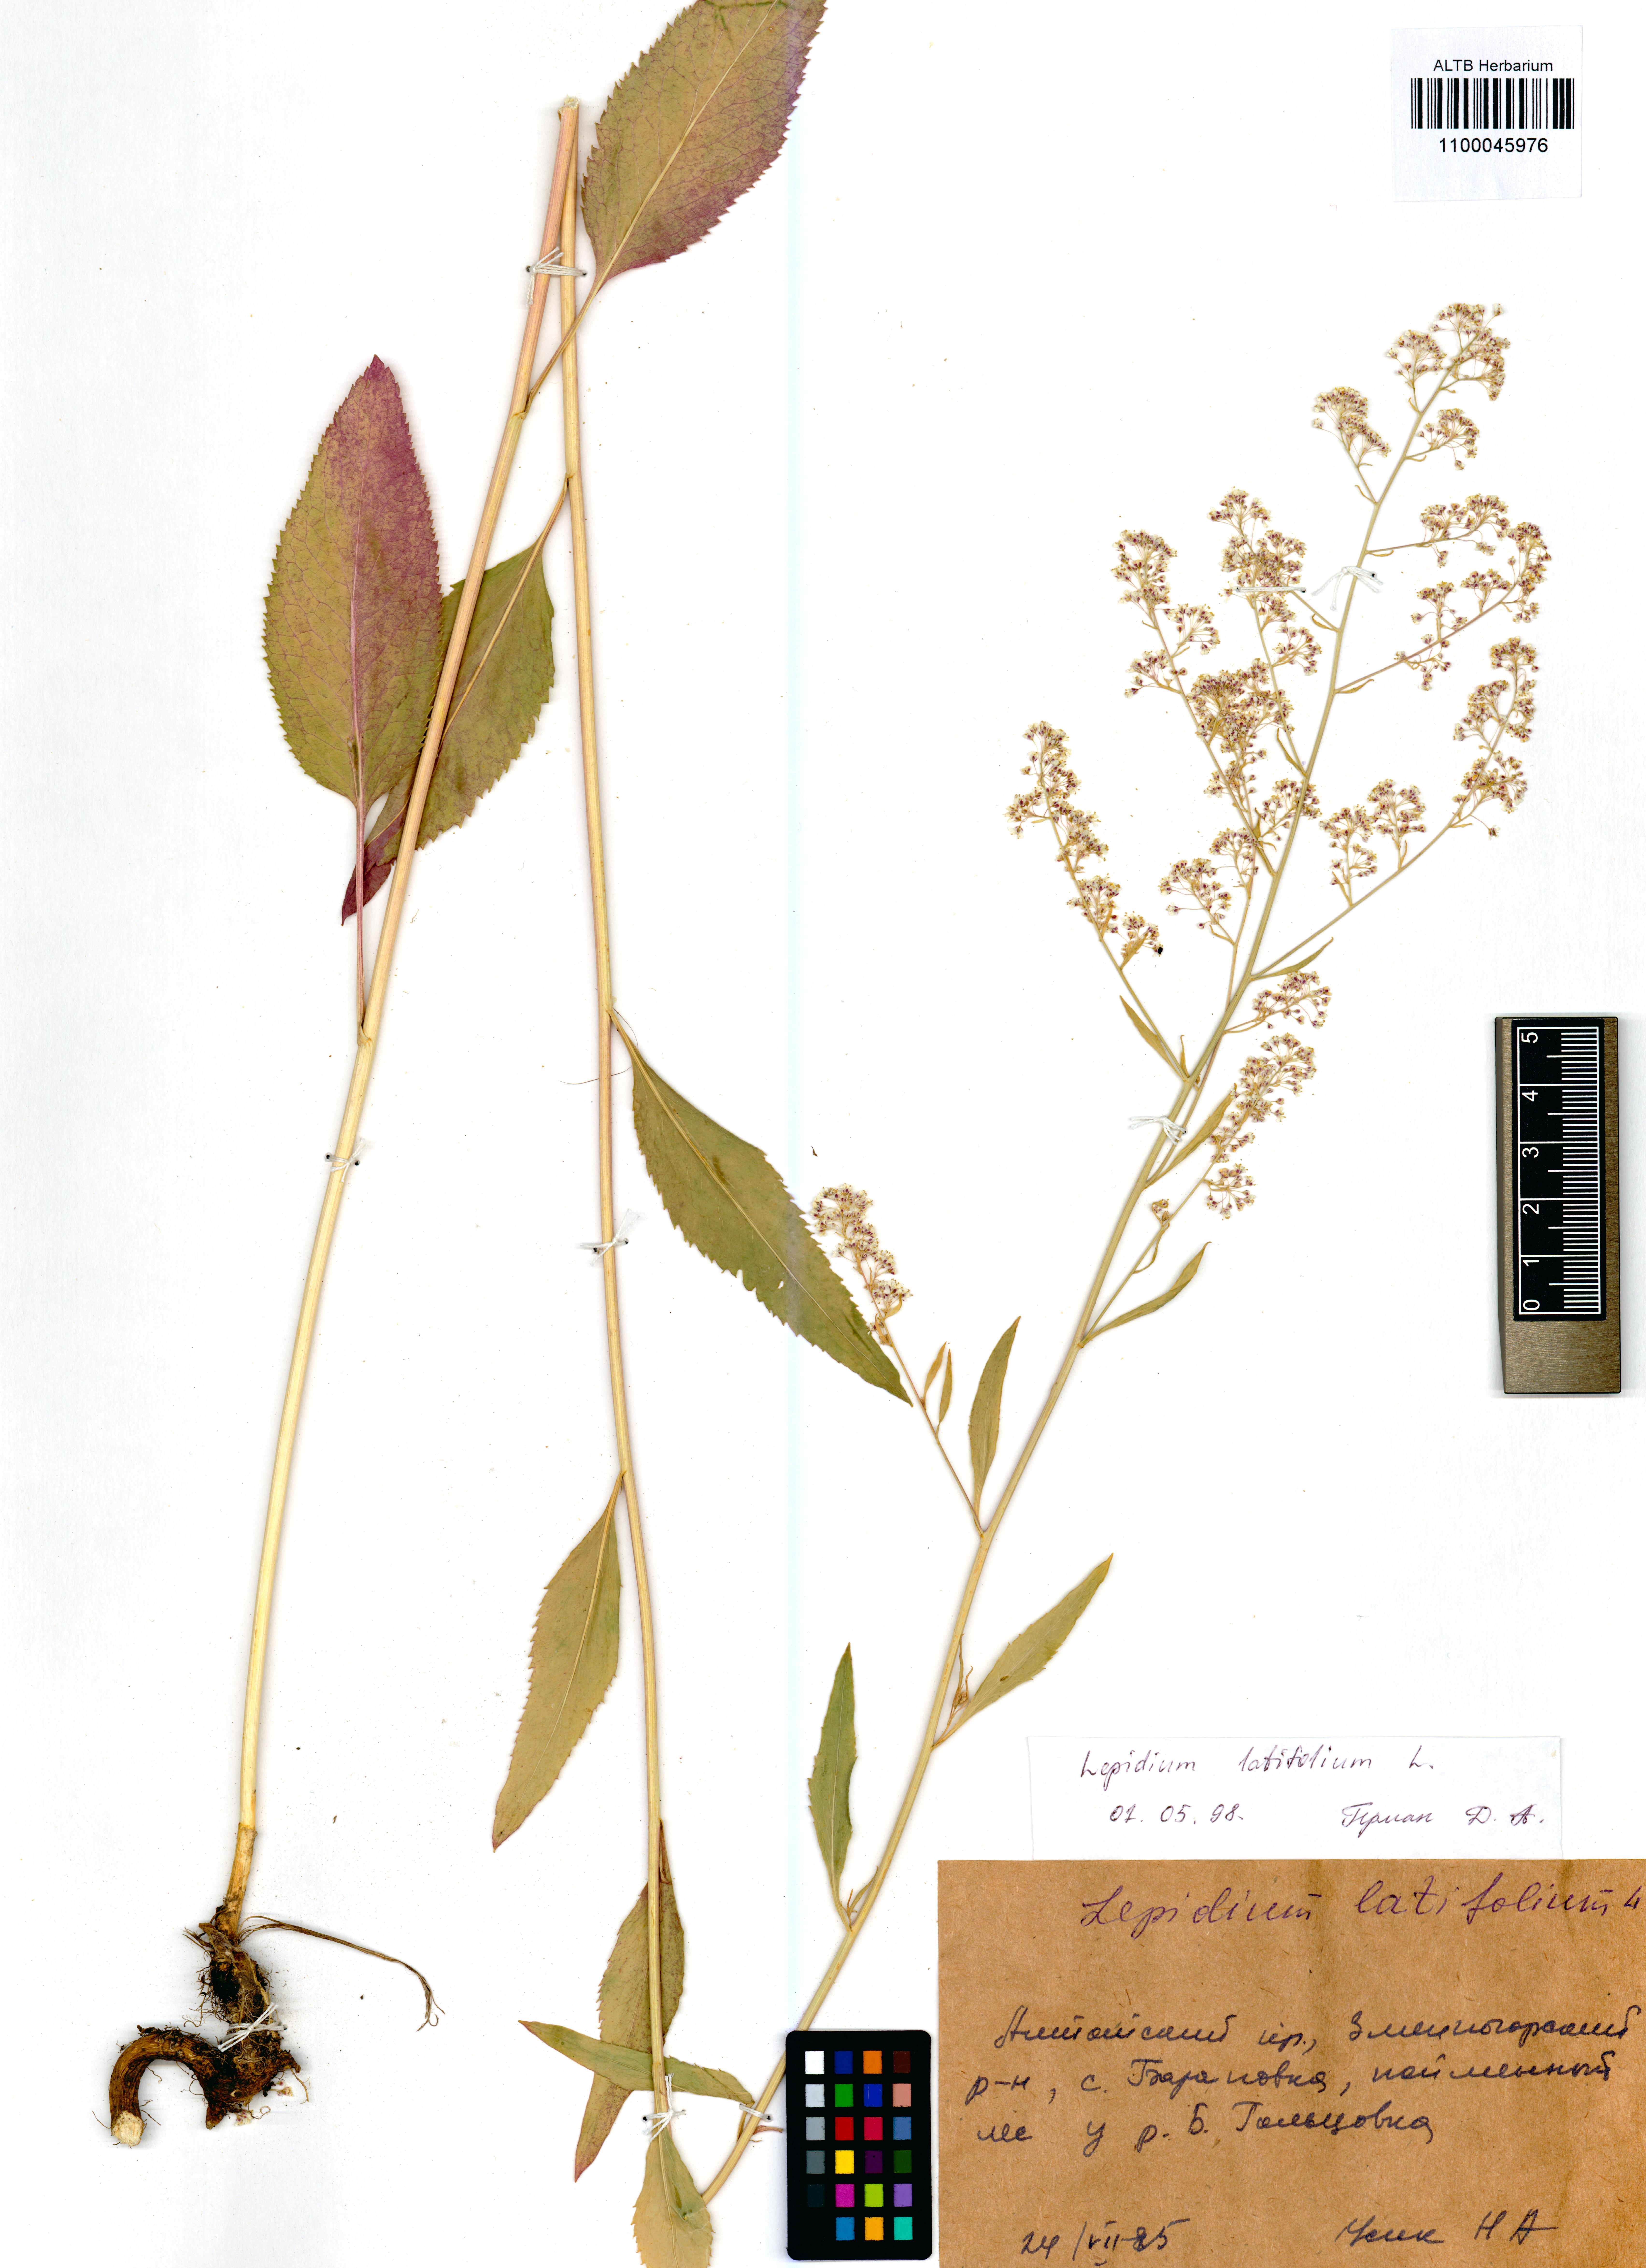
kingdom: Plantae
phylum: Tracheophyta
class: Magnoliopsida
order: Brassicales
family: Brassicaceae
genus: Lepidium
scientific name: Lepidium latifolium
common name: Dittander
